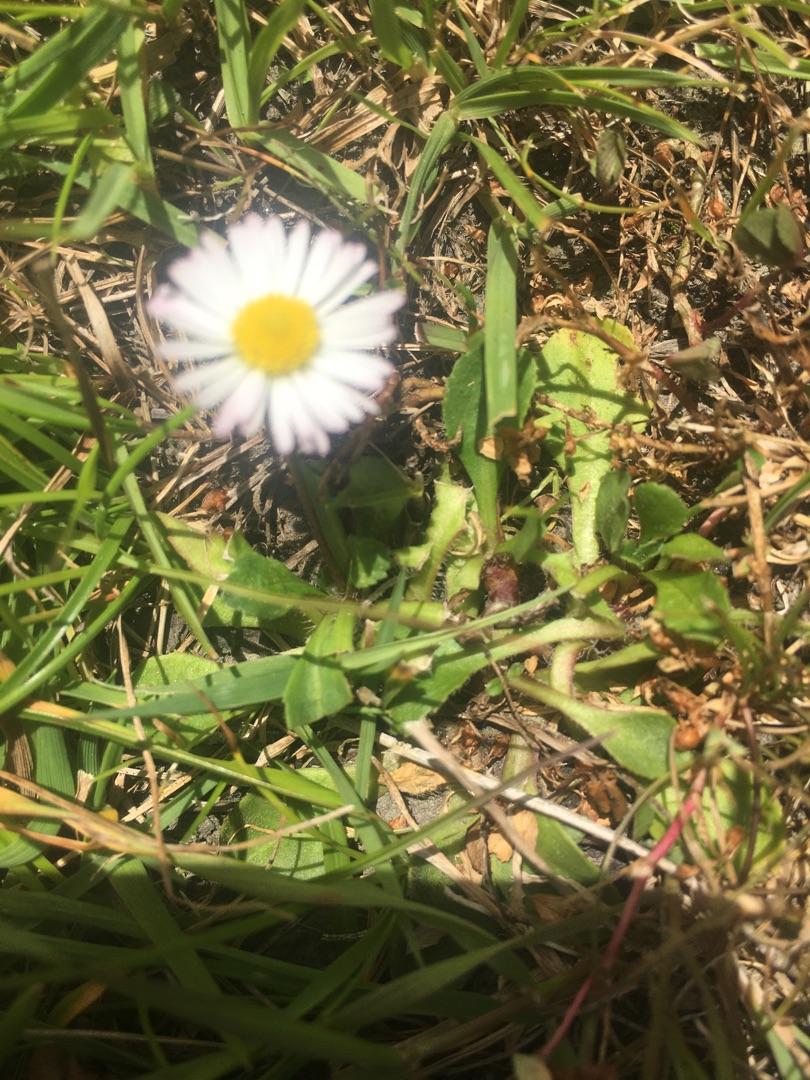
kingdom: Plantae
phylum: Tracheophyta
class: Magnoliopsida
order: Asterales
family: Asteraceae
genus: Bellis
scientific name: Bellis perennis
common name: Tusindfryd
